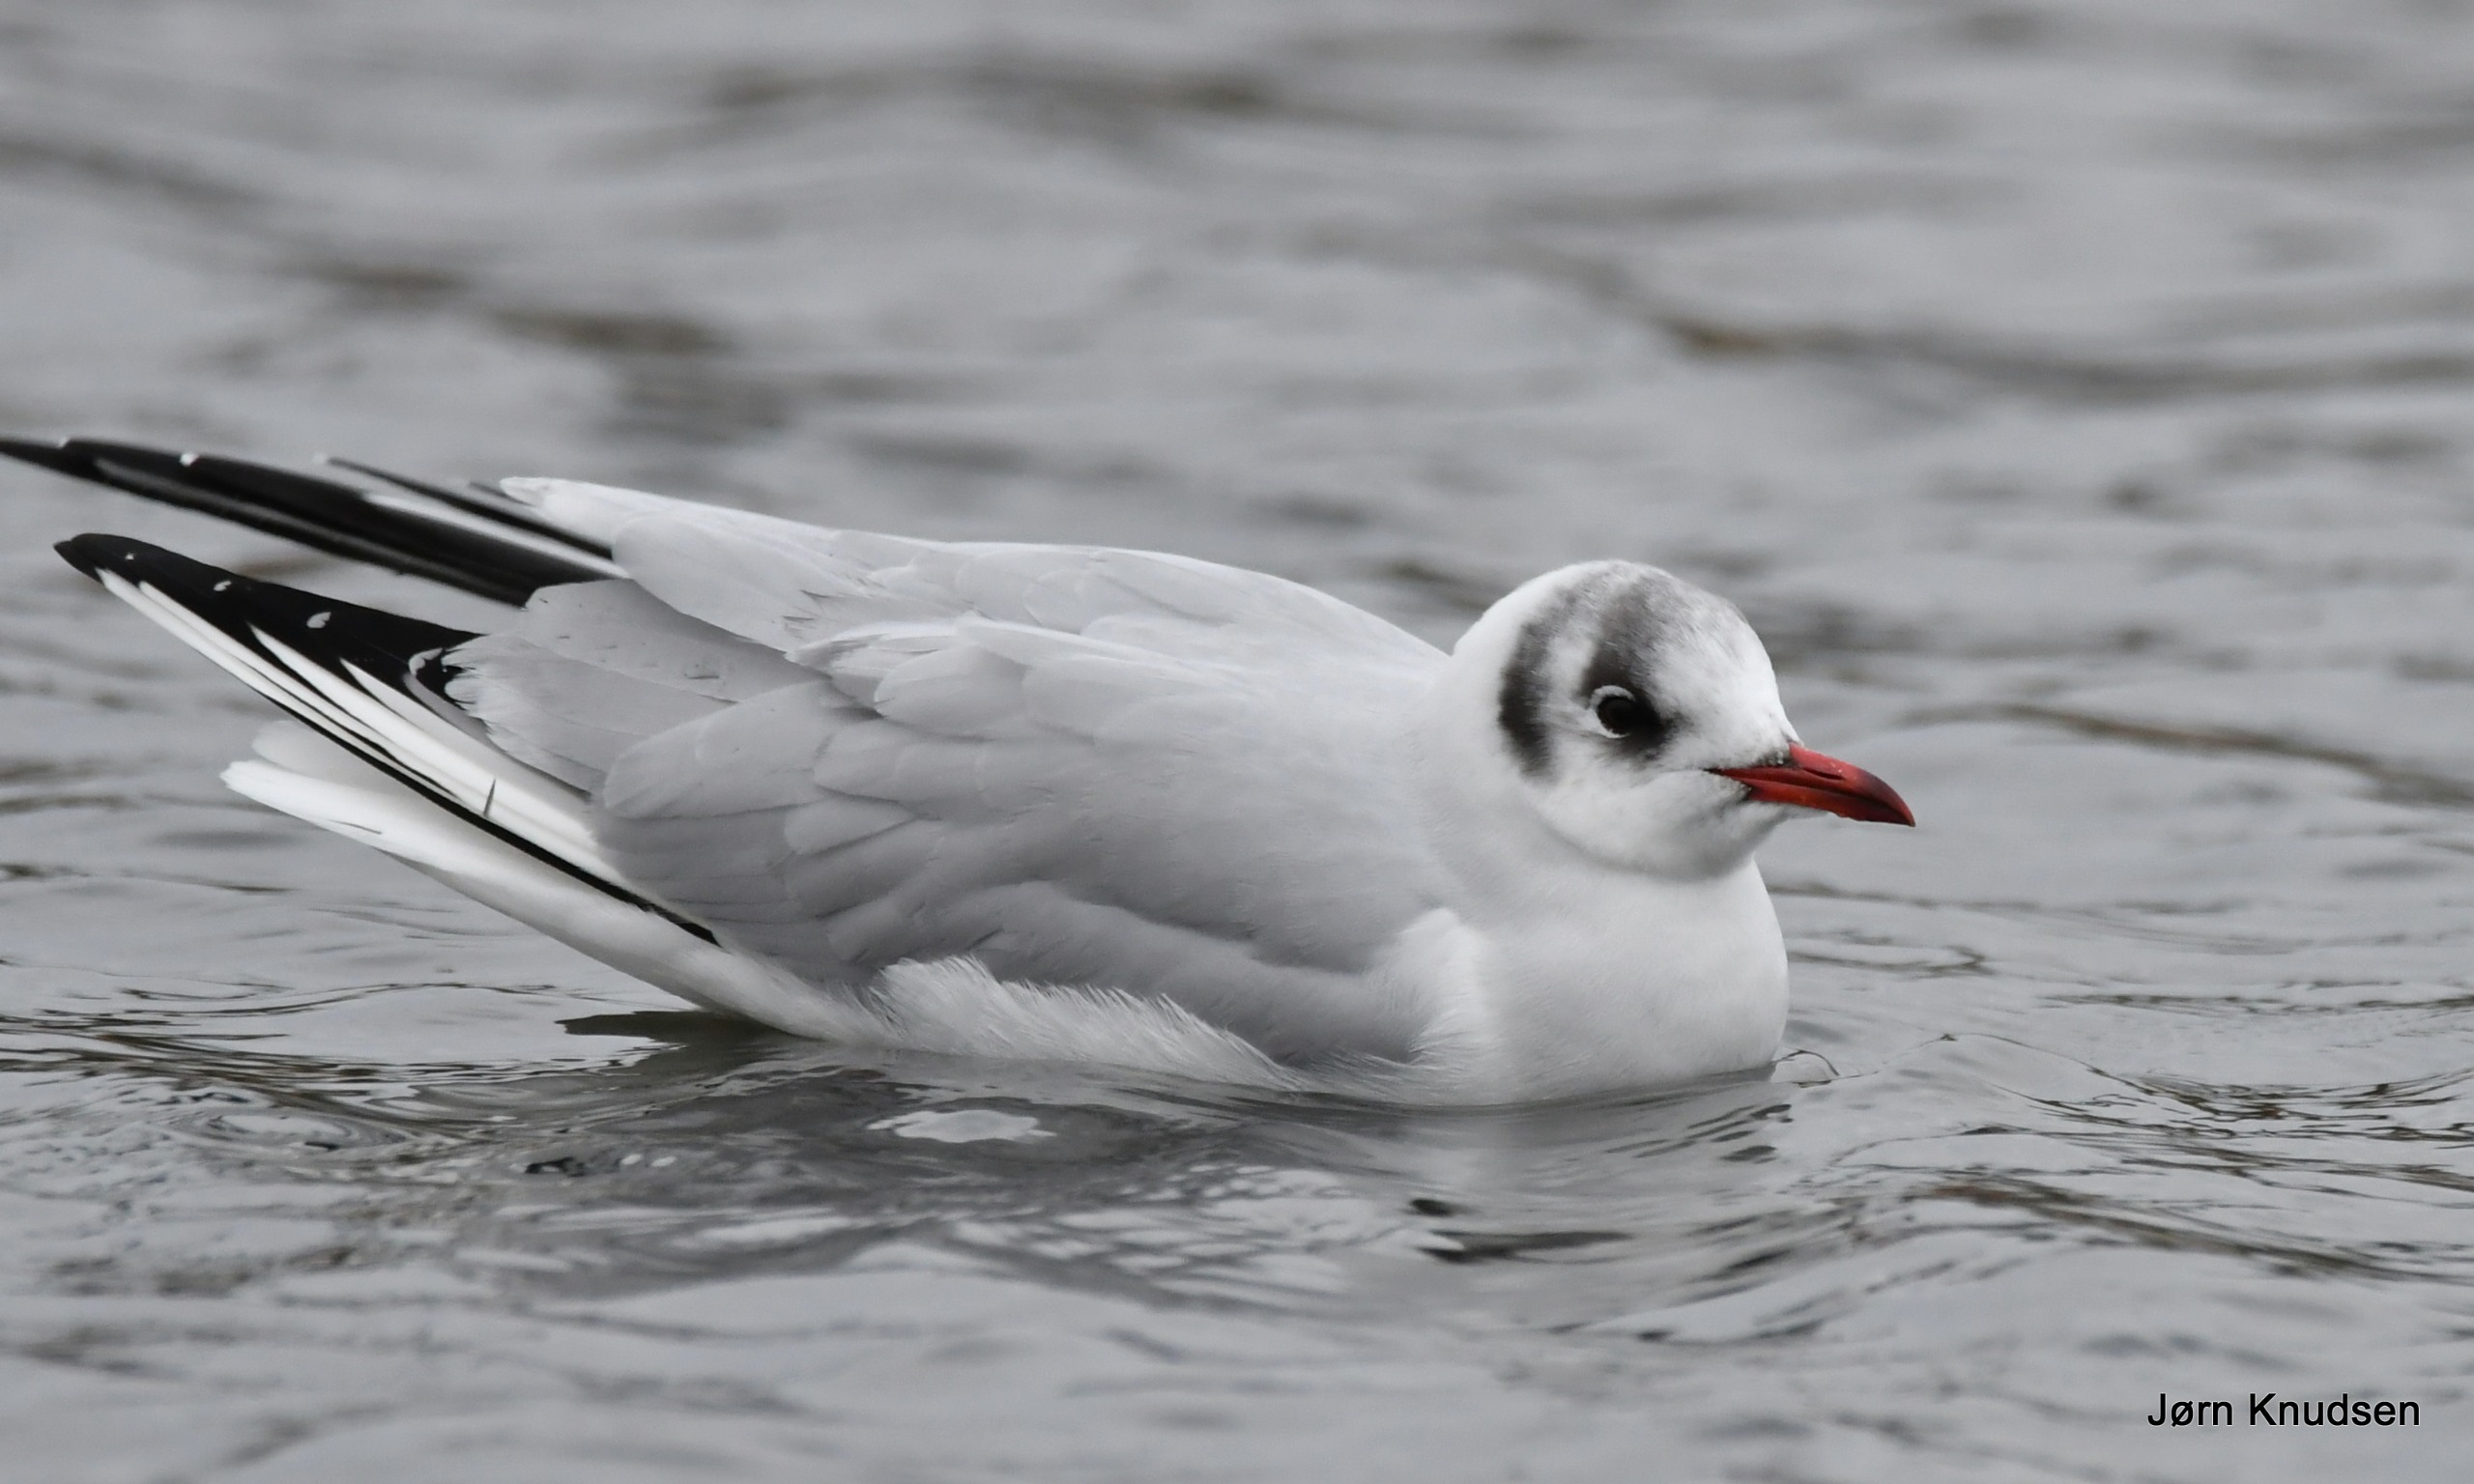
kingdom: Animalia
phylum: Chordata
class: Aves
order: Charadriiformes
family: Laridae
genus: Chroicocephalus
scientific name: Chroicocephalus ridibundus
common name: Hættemåge
